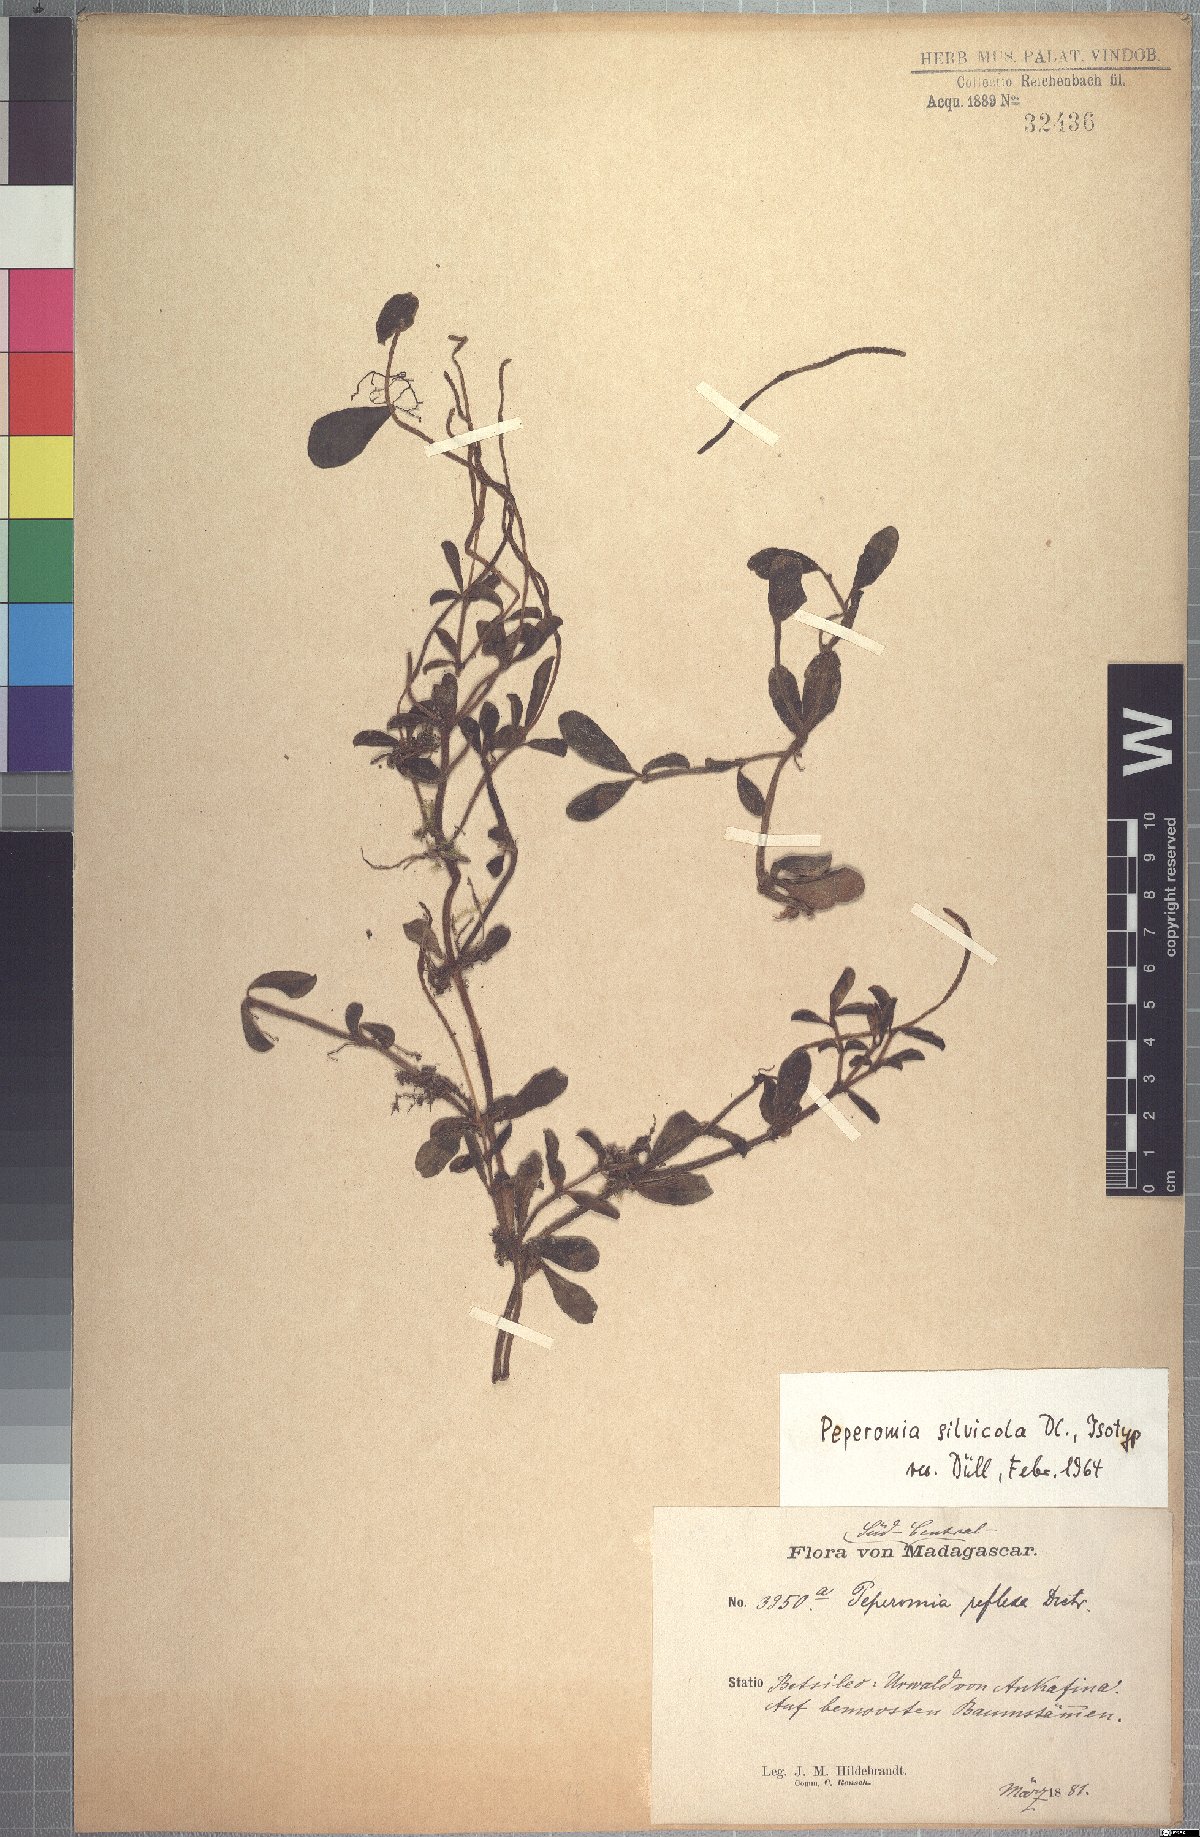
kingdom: Plantae
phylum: Tracheophyta
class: Magnoliopsida
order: Piperales
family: Piperaceae
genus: Peperomia
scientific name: Peperomia silvicola
